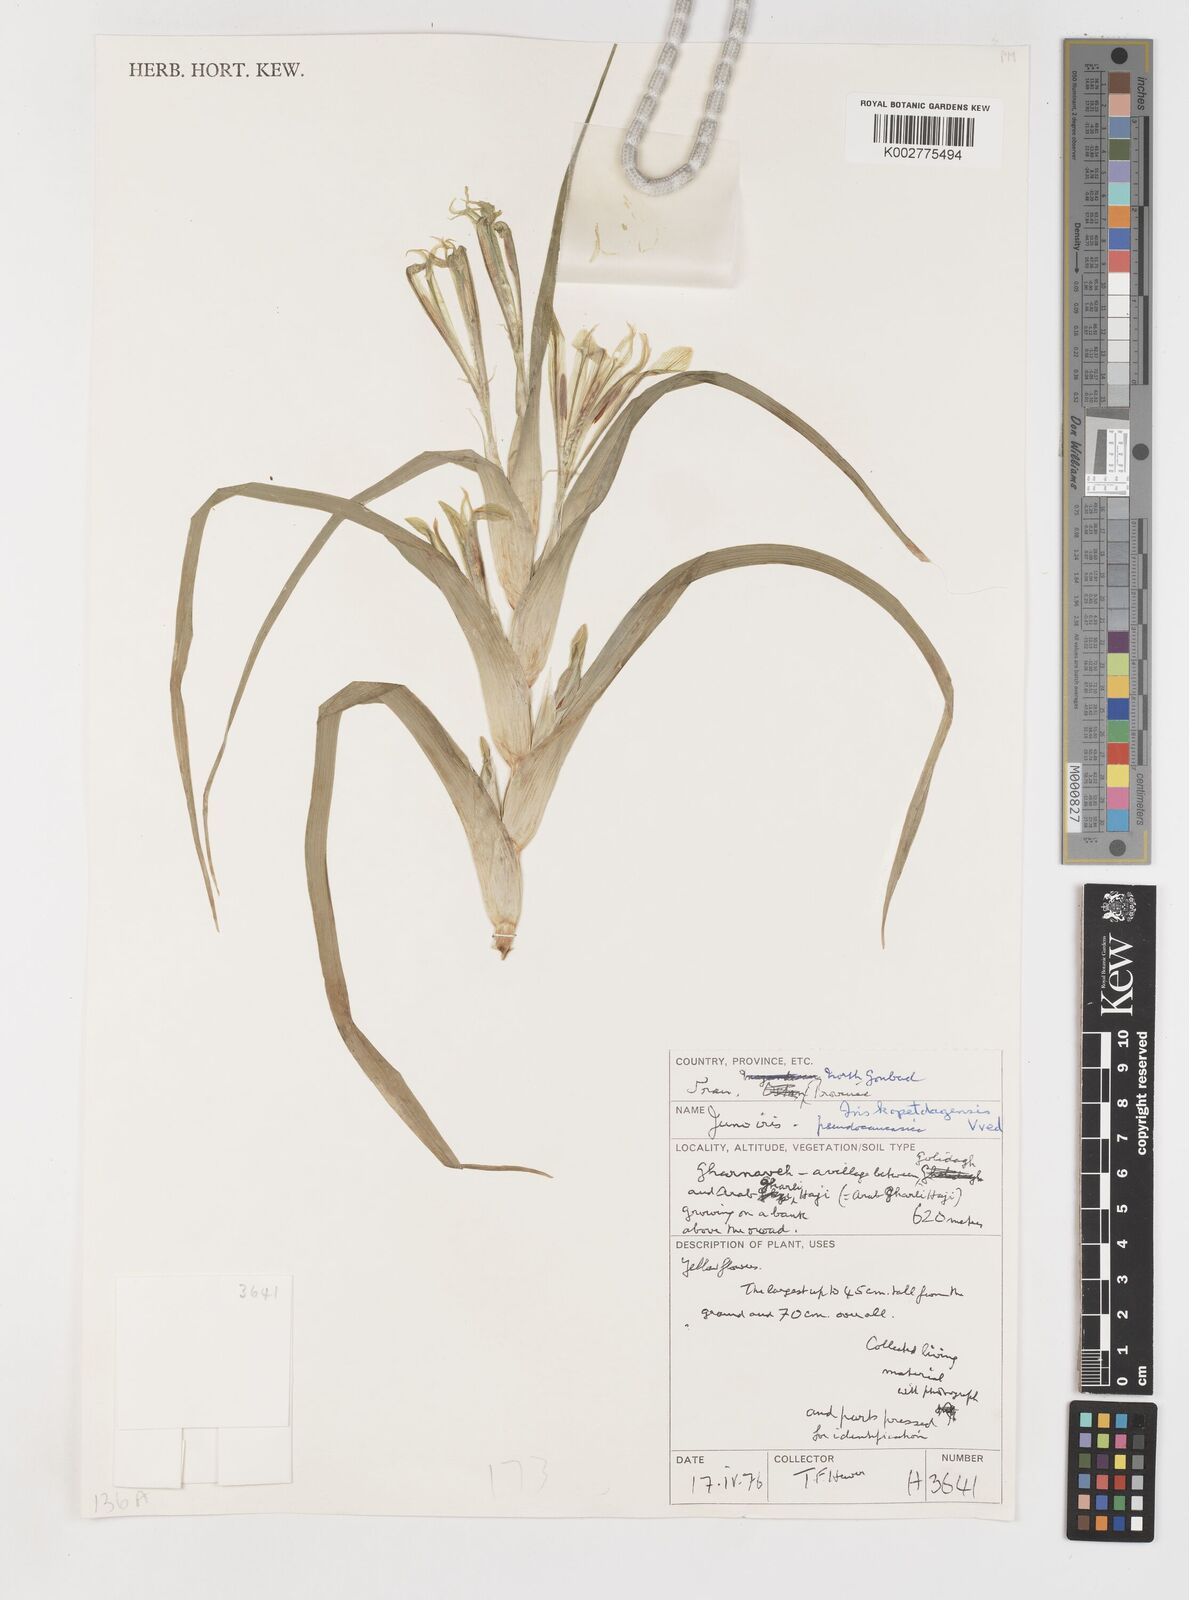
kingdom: Plantae
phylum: Tracheophyta
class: Liliopsida
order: Asparagales
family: Iridaceae
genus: Iris
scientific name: Iris kopetdagensis
